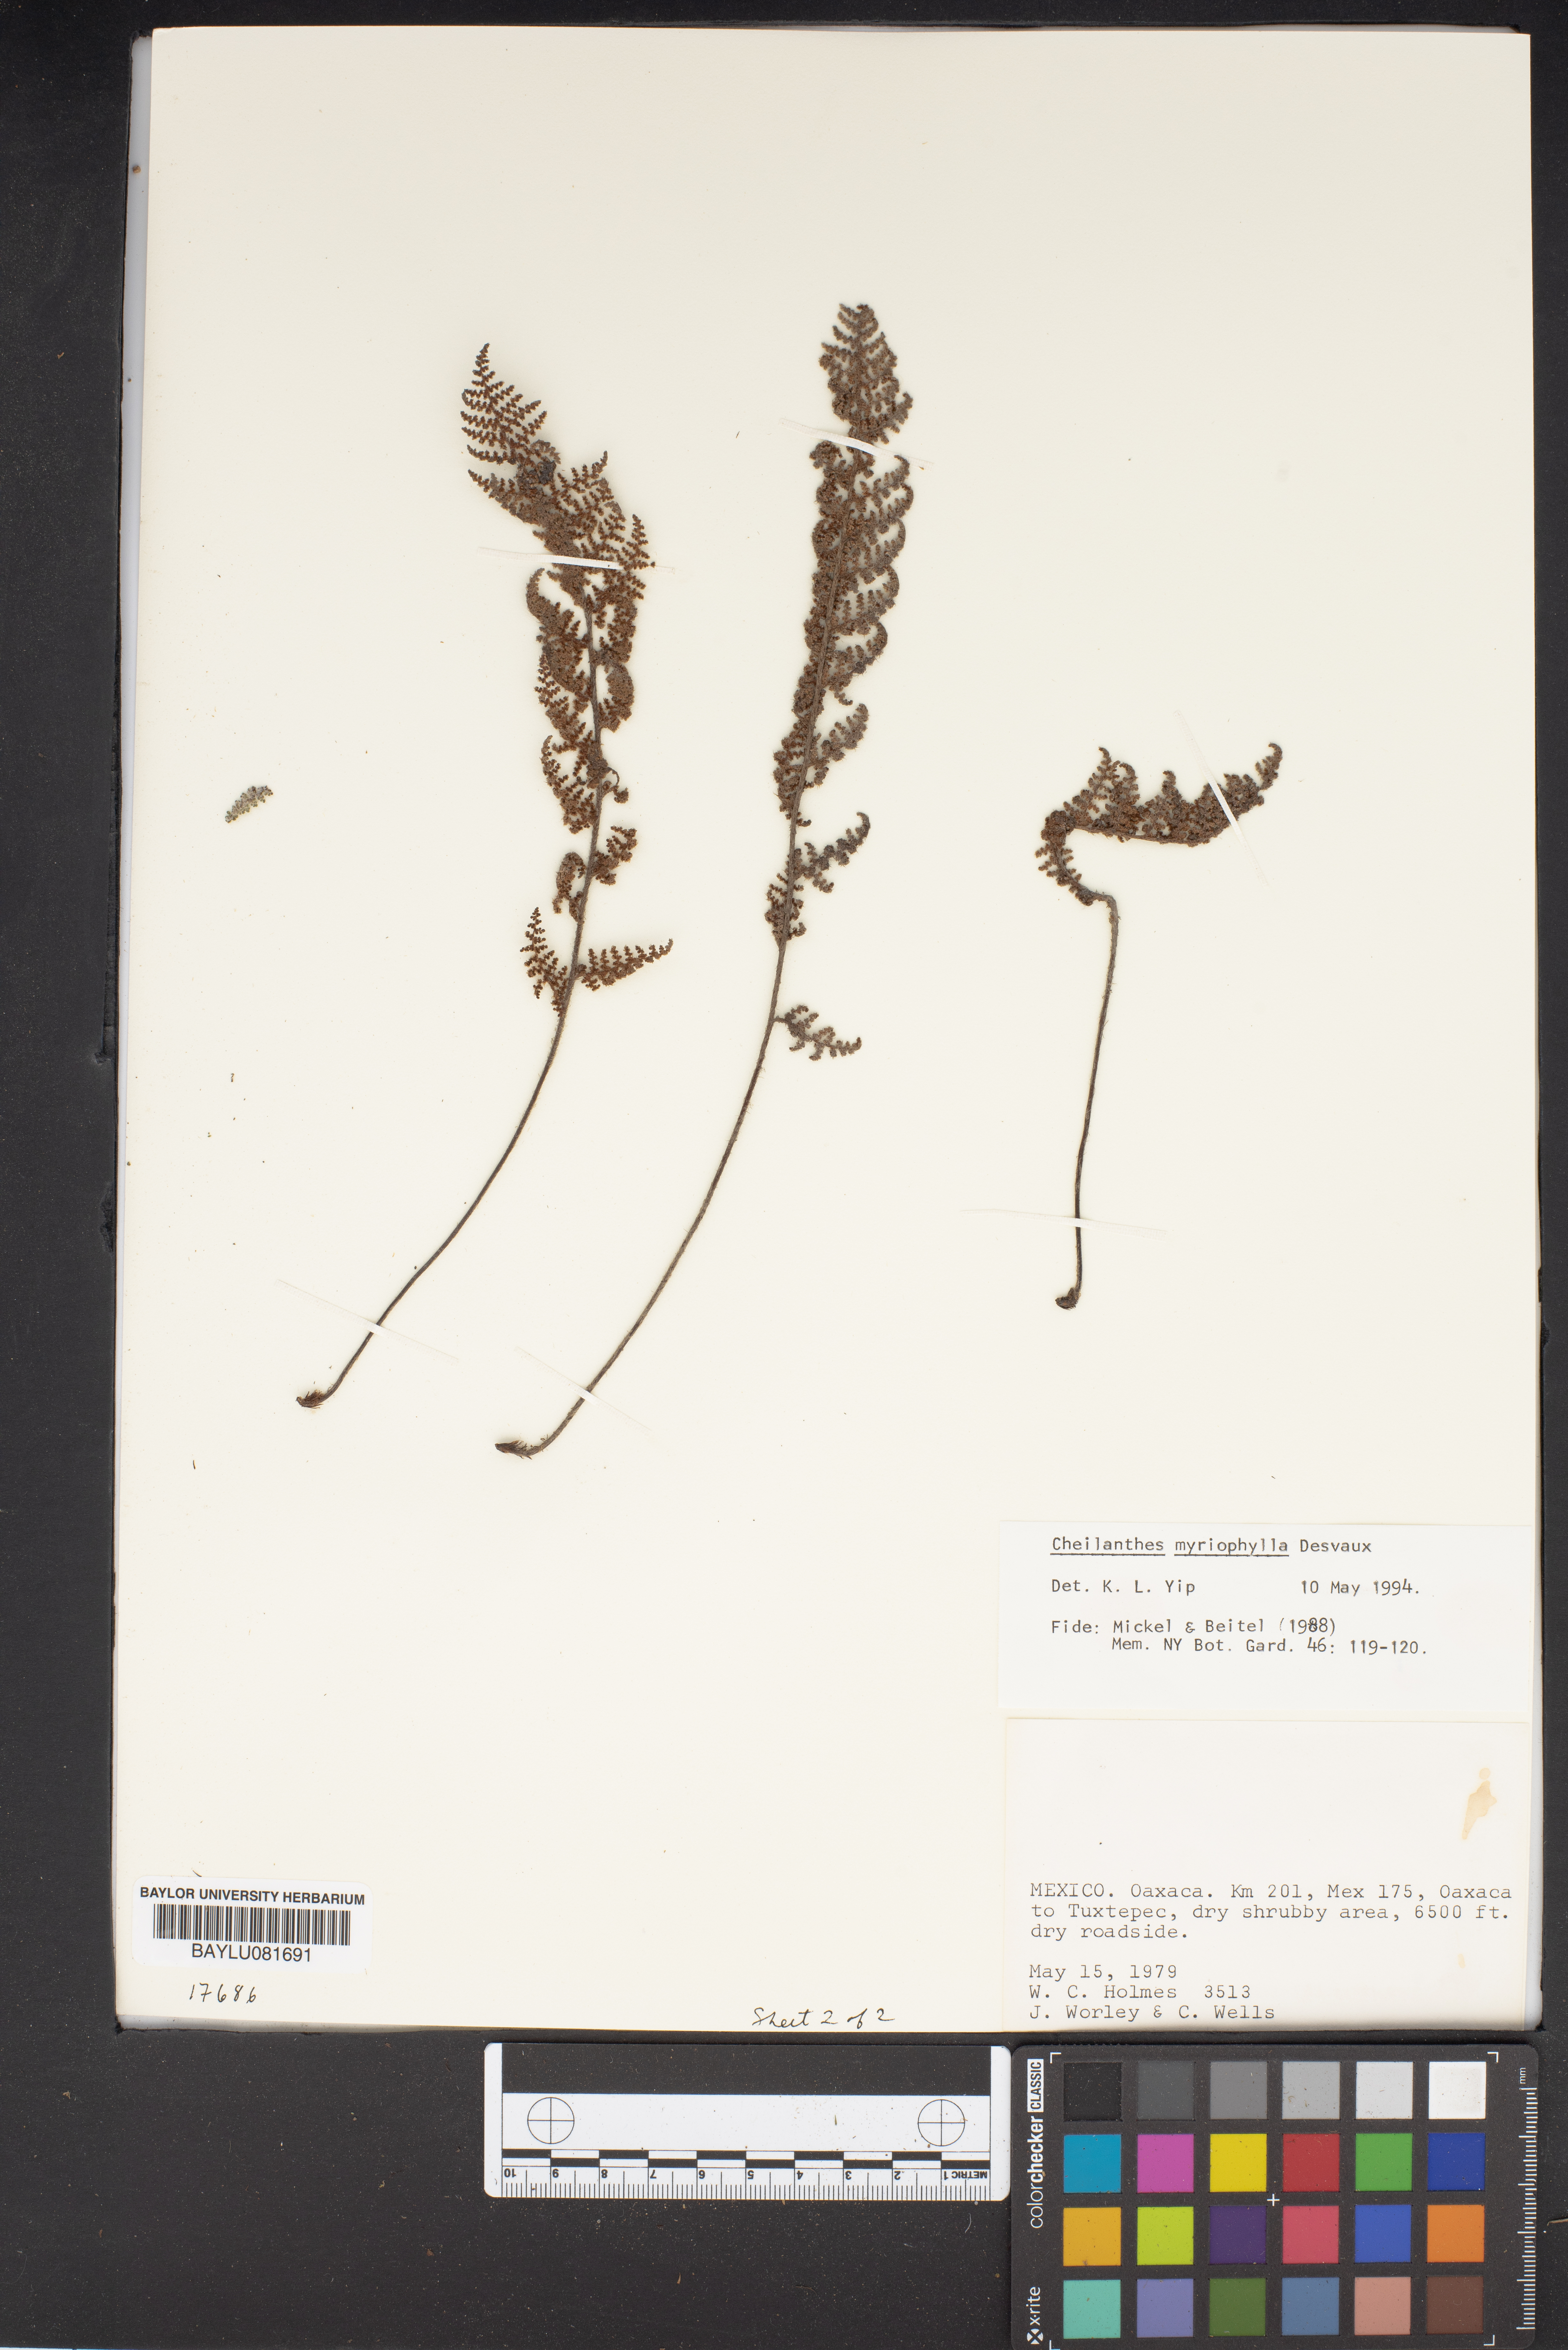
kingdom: Plantae
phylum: Tracheophyta
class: Polypodiopsida
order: Polypodiales
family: Pteridaceae
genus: Myriopteris
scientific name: Myriopteris myriophylla
